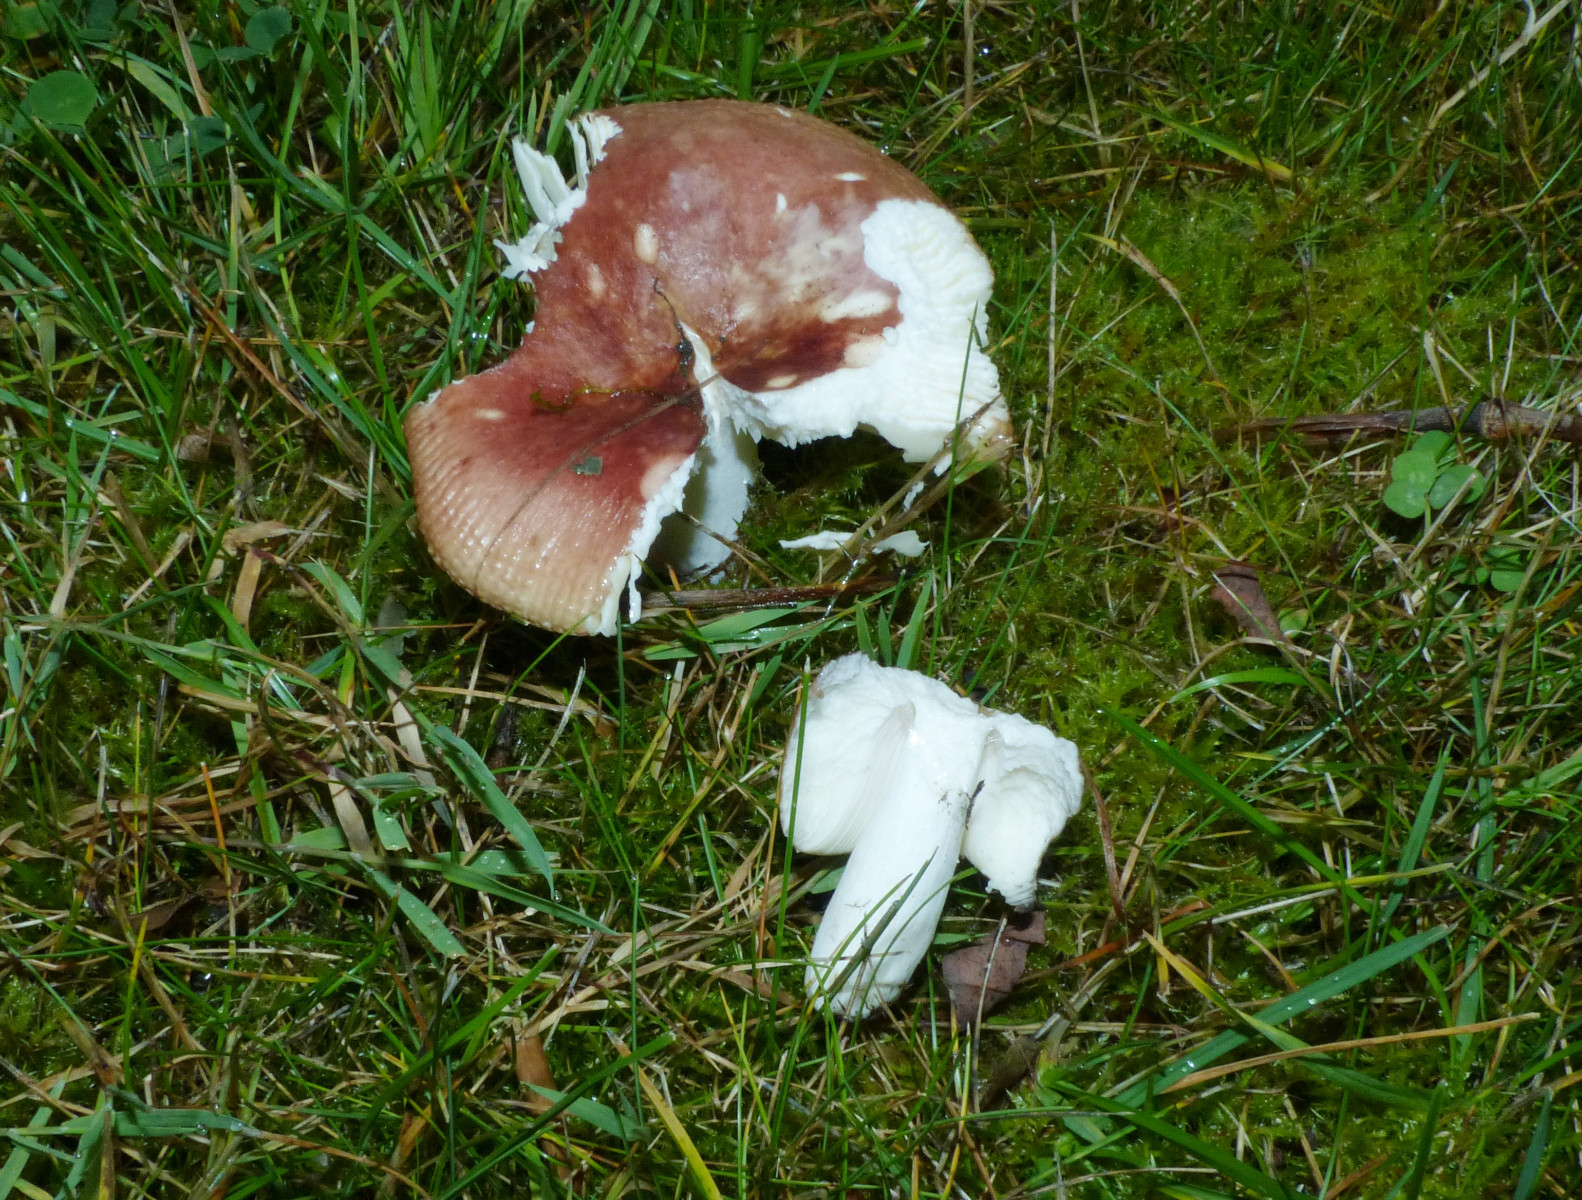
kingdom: Fungi
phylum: Basidiomycota
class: Agaricomycetes
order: Russulales
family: Russulaceae
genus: Russula
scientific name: Russula
